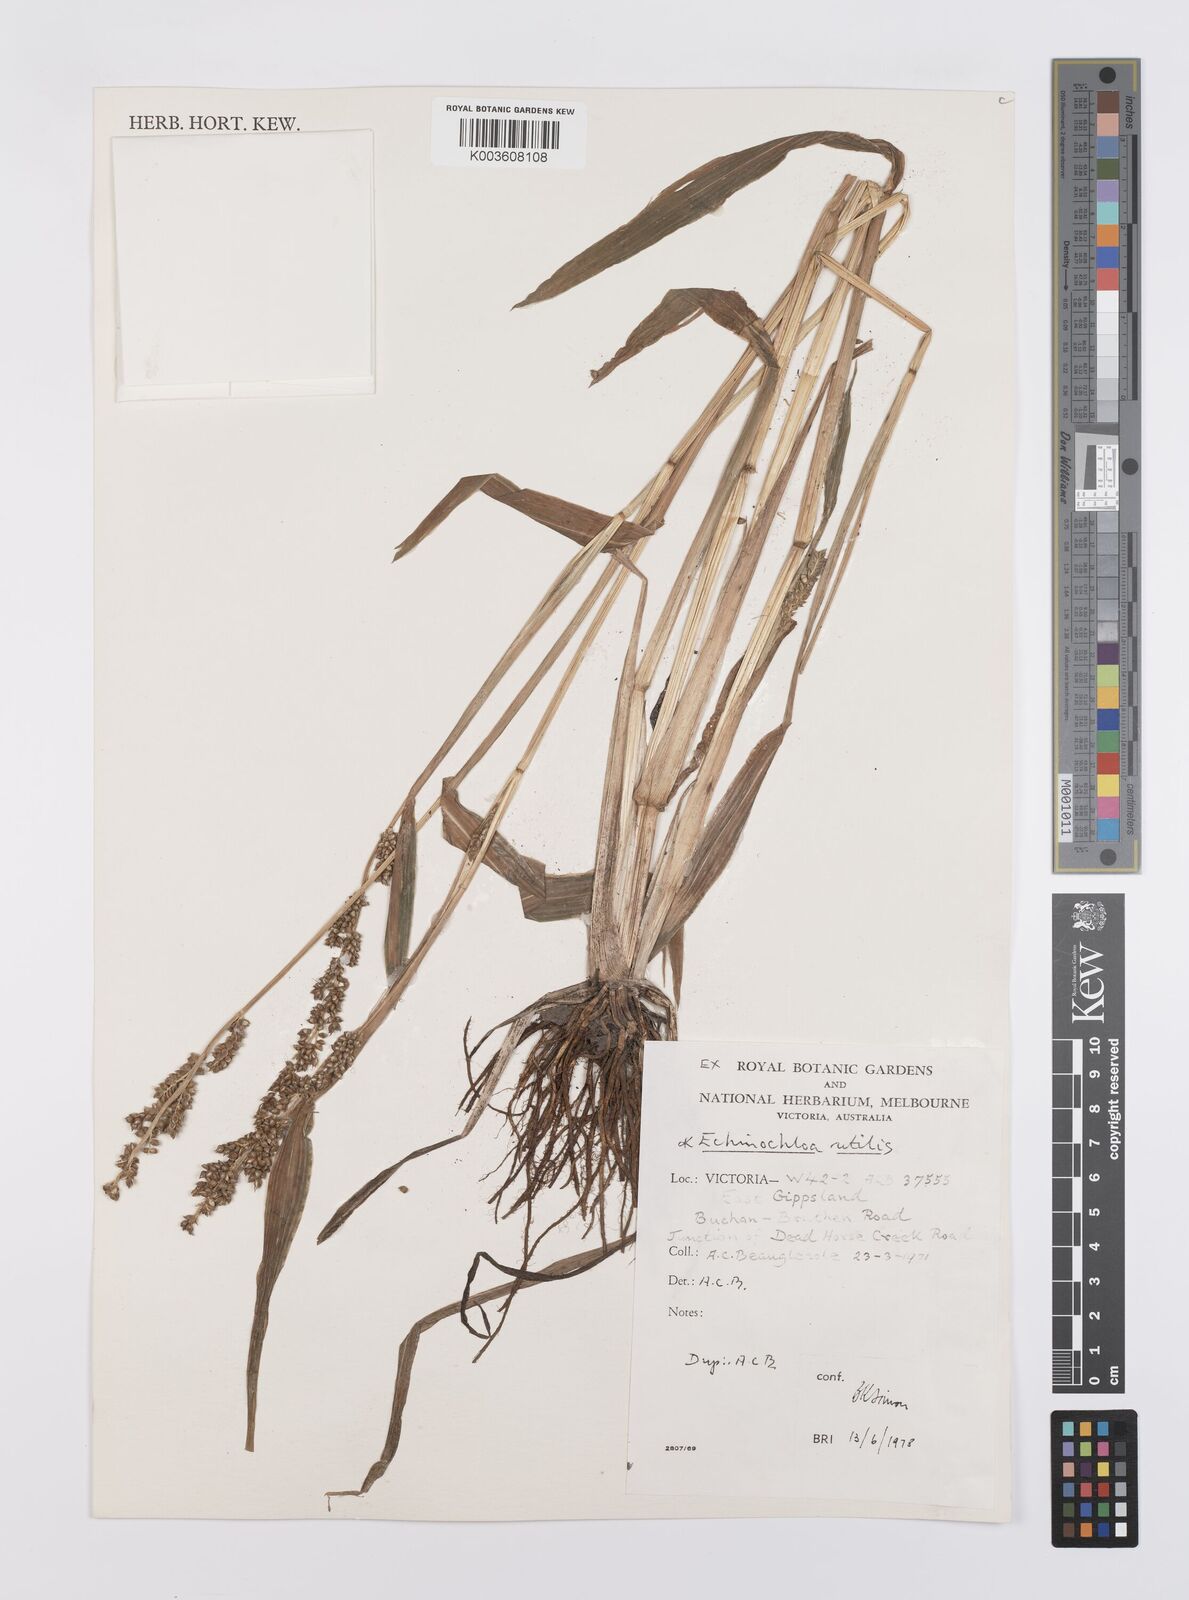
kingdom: Plantae
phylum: Tracheophyta
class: Liliopsida
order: Poales
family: Poaceae
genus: Echinochloa
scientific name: Echinochloa crus-galli
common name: Cockspur
